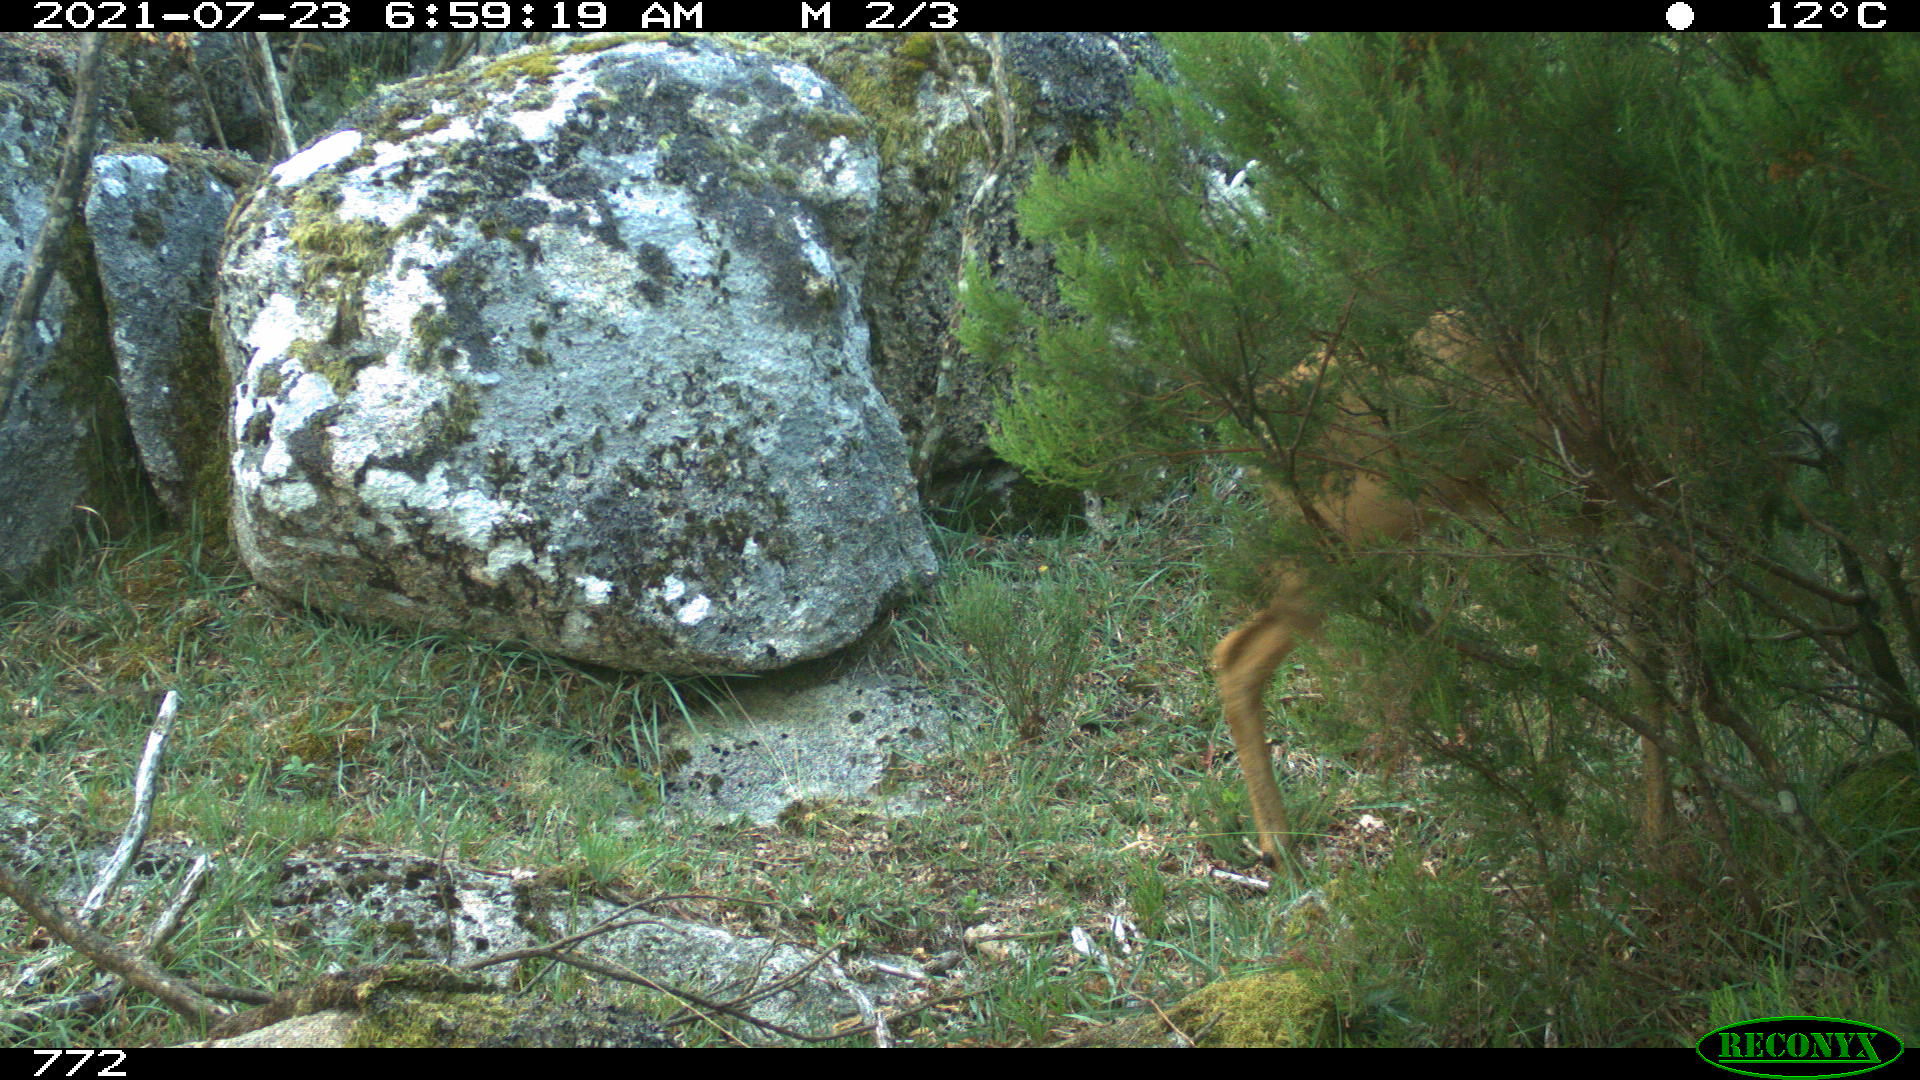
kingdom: Animalia
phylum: Chordata
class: Mammalia
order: Artiodactyla
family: Cervidae
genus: Capreolus
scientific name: Capreolus capreolus
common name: Western roe deer
